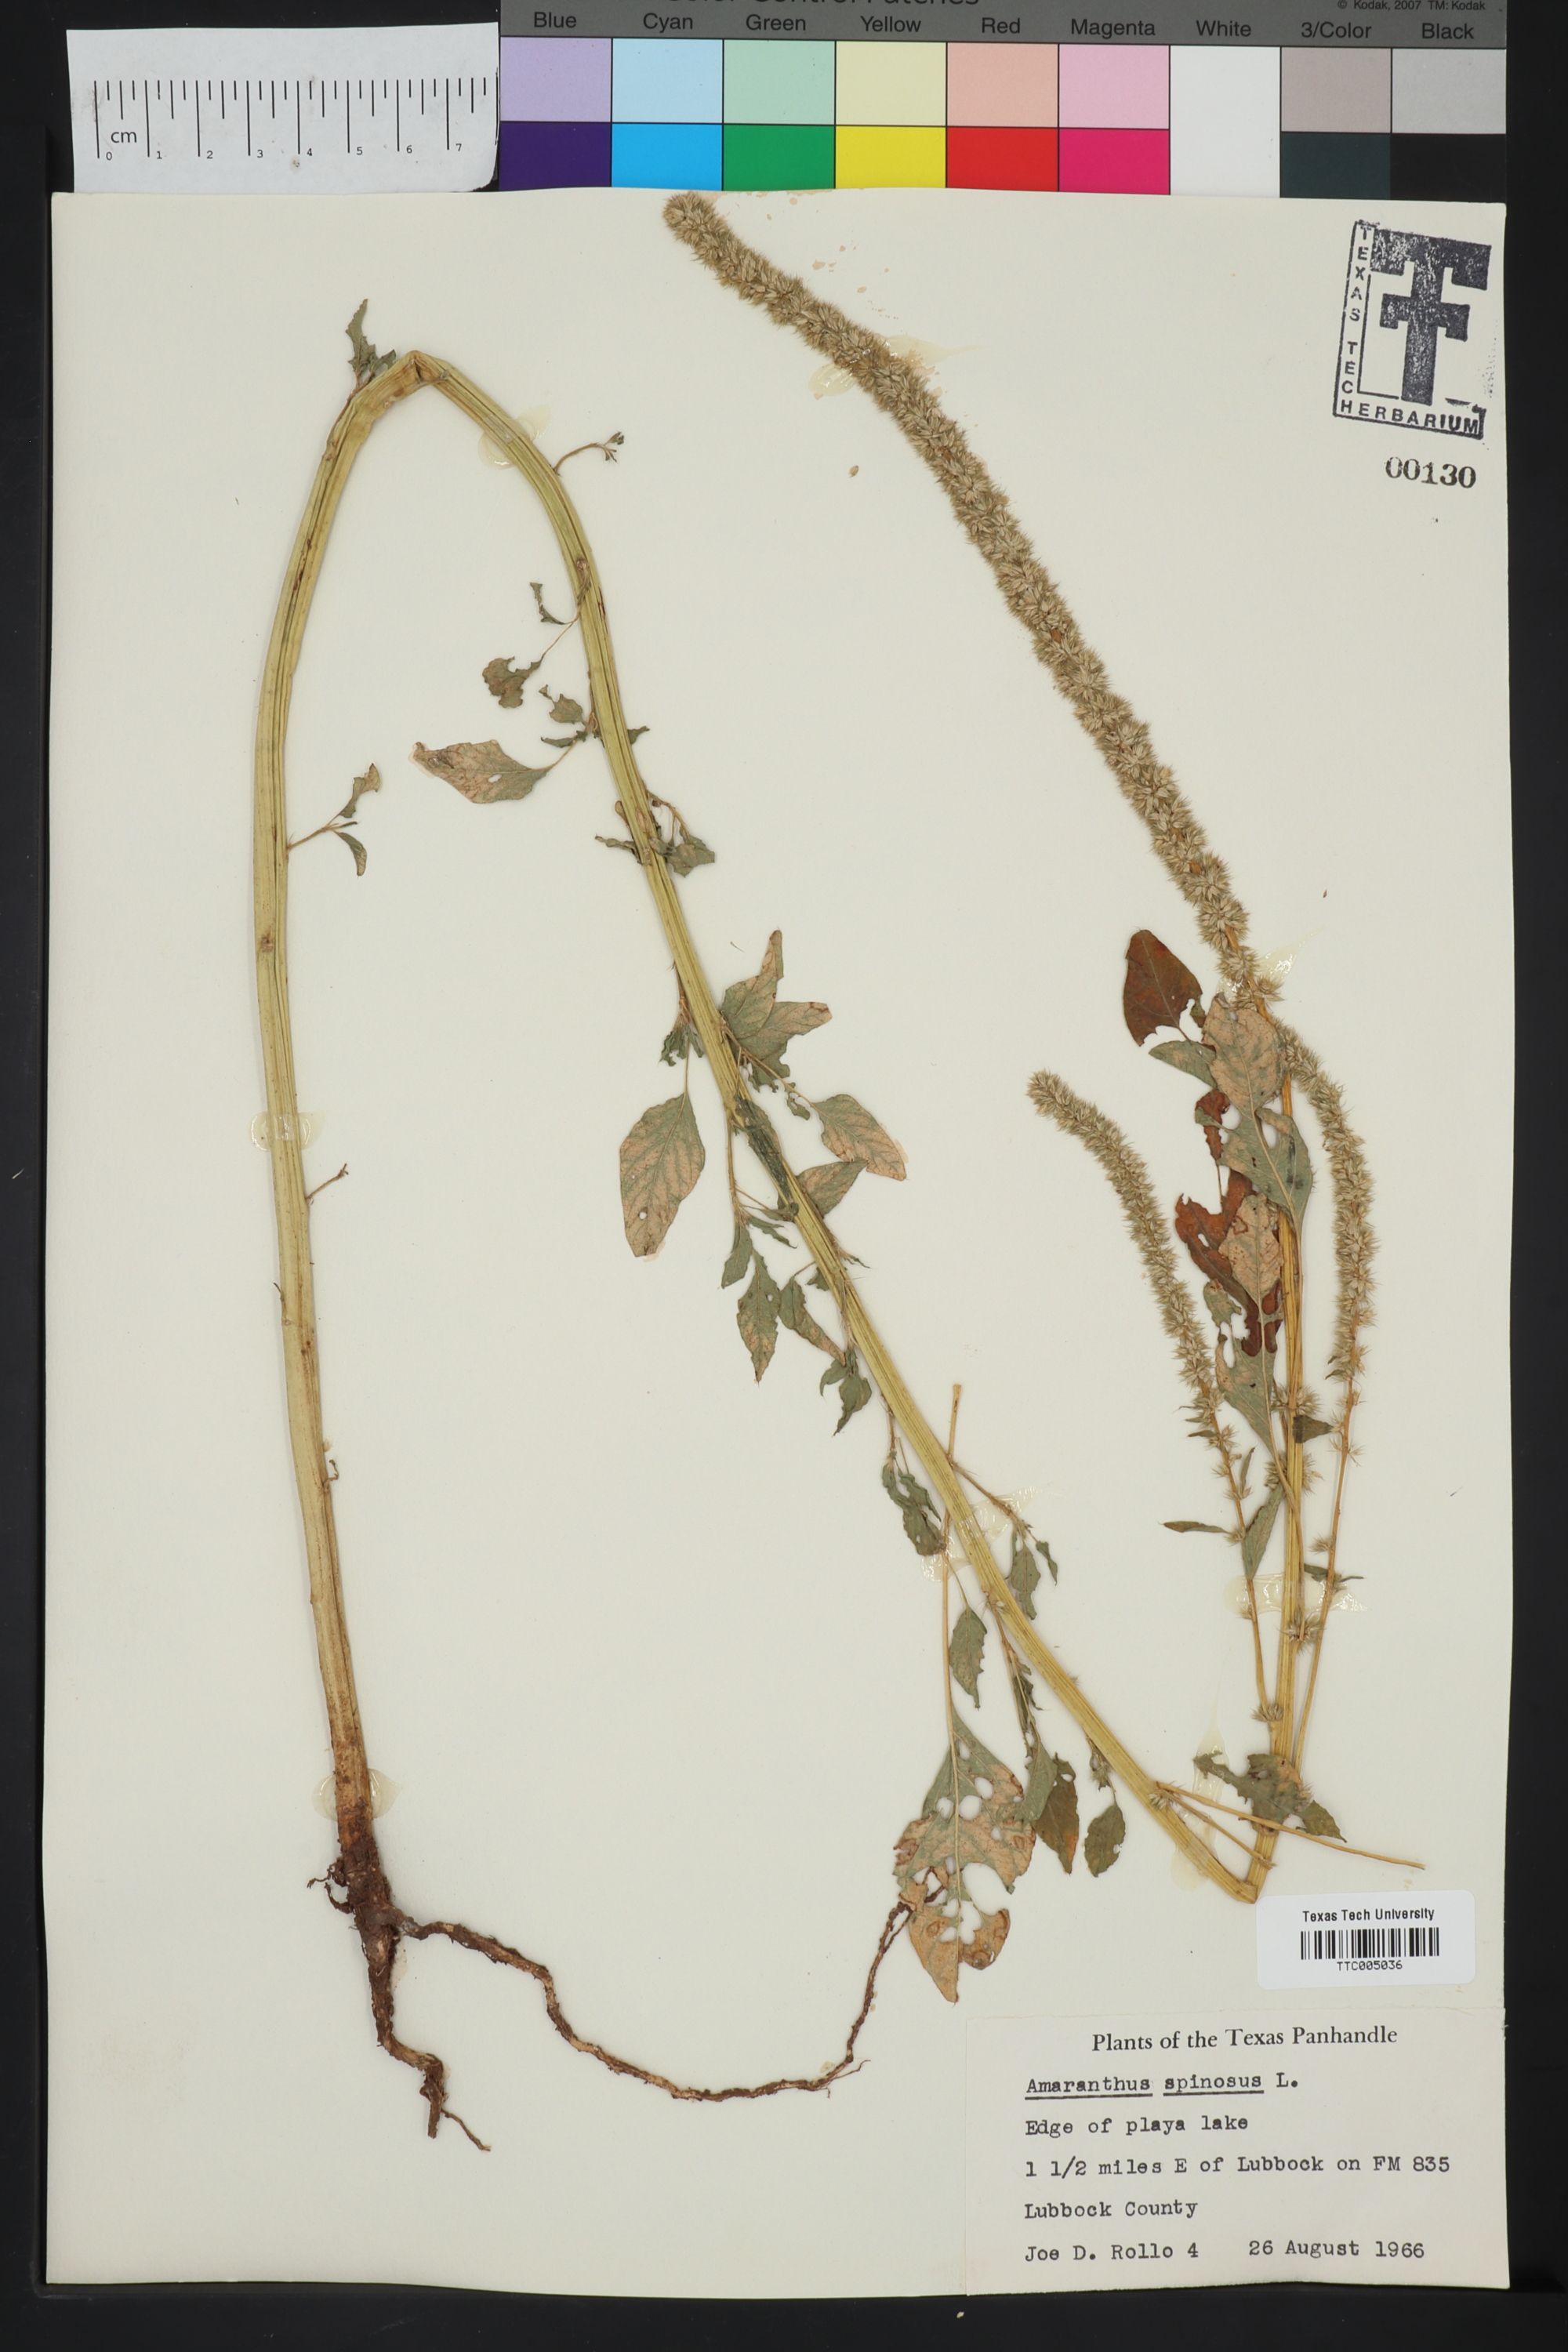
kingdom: Plantae
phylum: Tracheophyta
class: Magnoliopsida
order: Caryophyllales
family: Amaranthaceae
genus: Amaranthus
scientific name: Amaranthus spinosus
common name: Spiny amaranth
